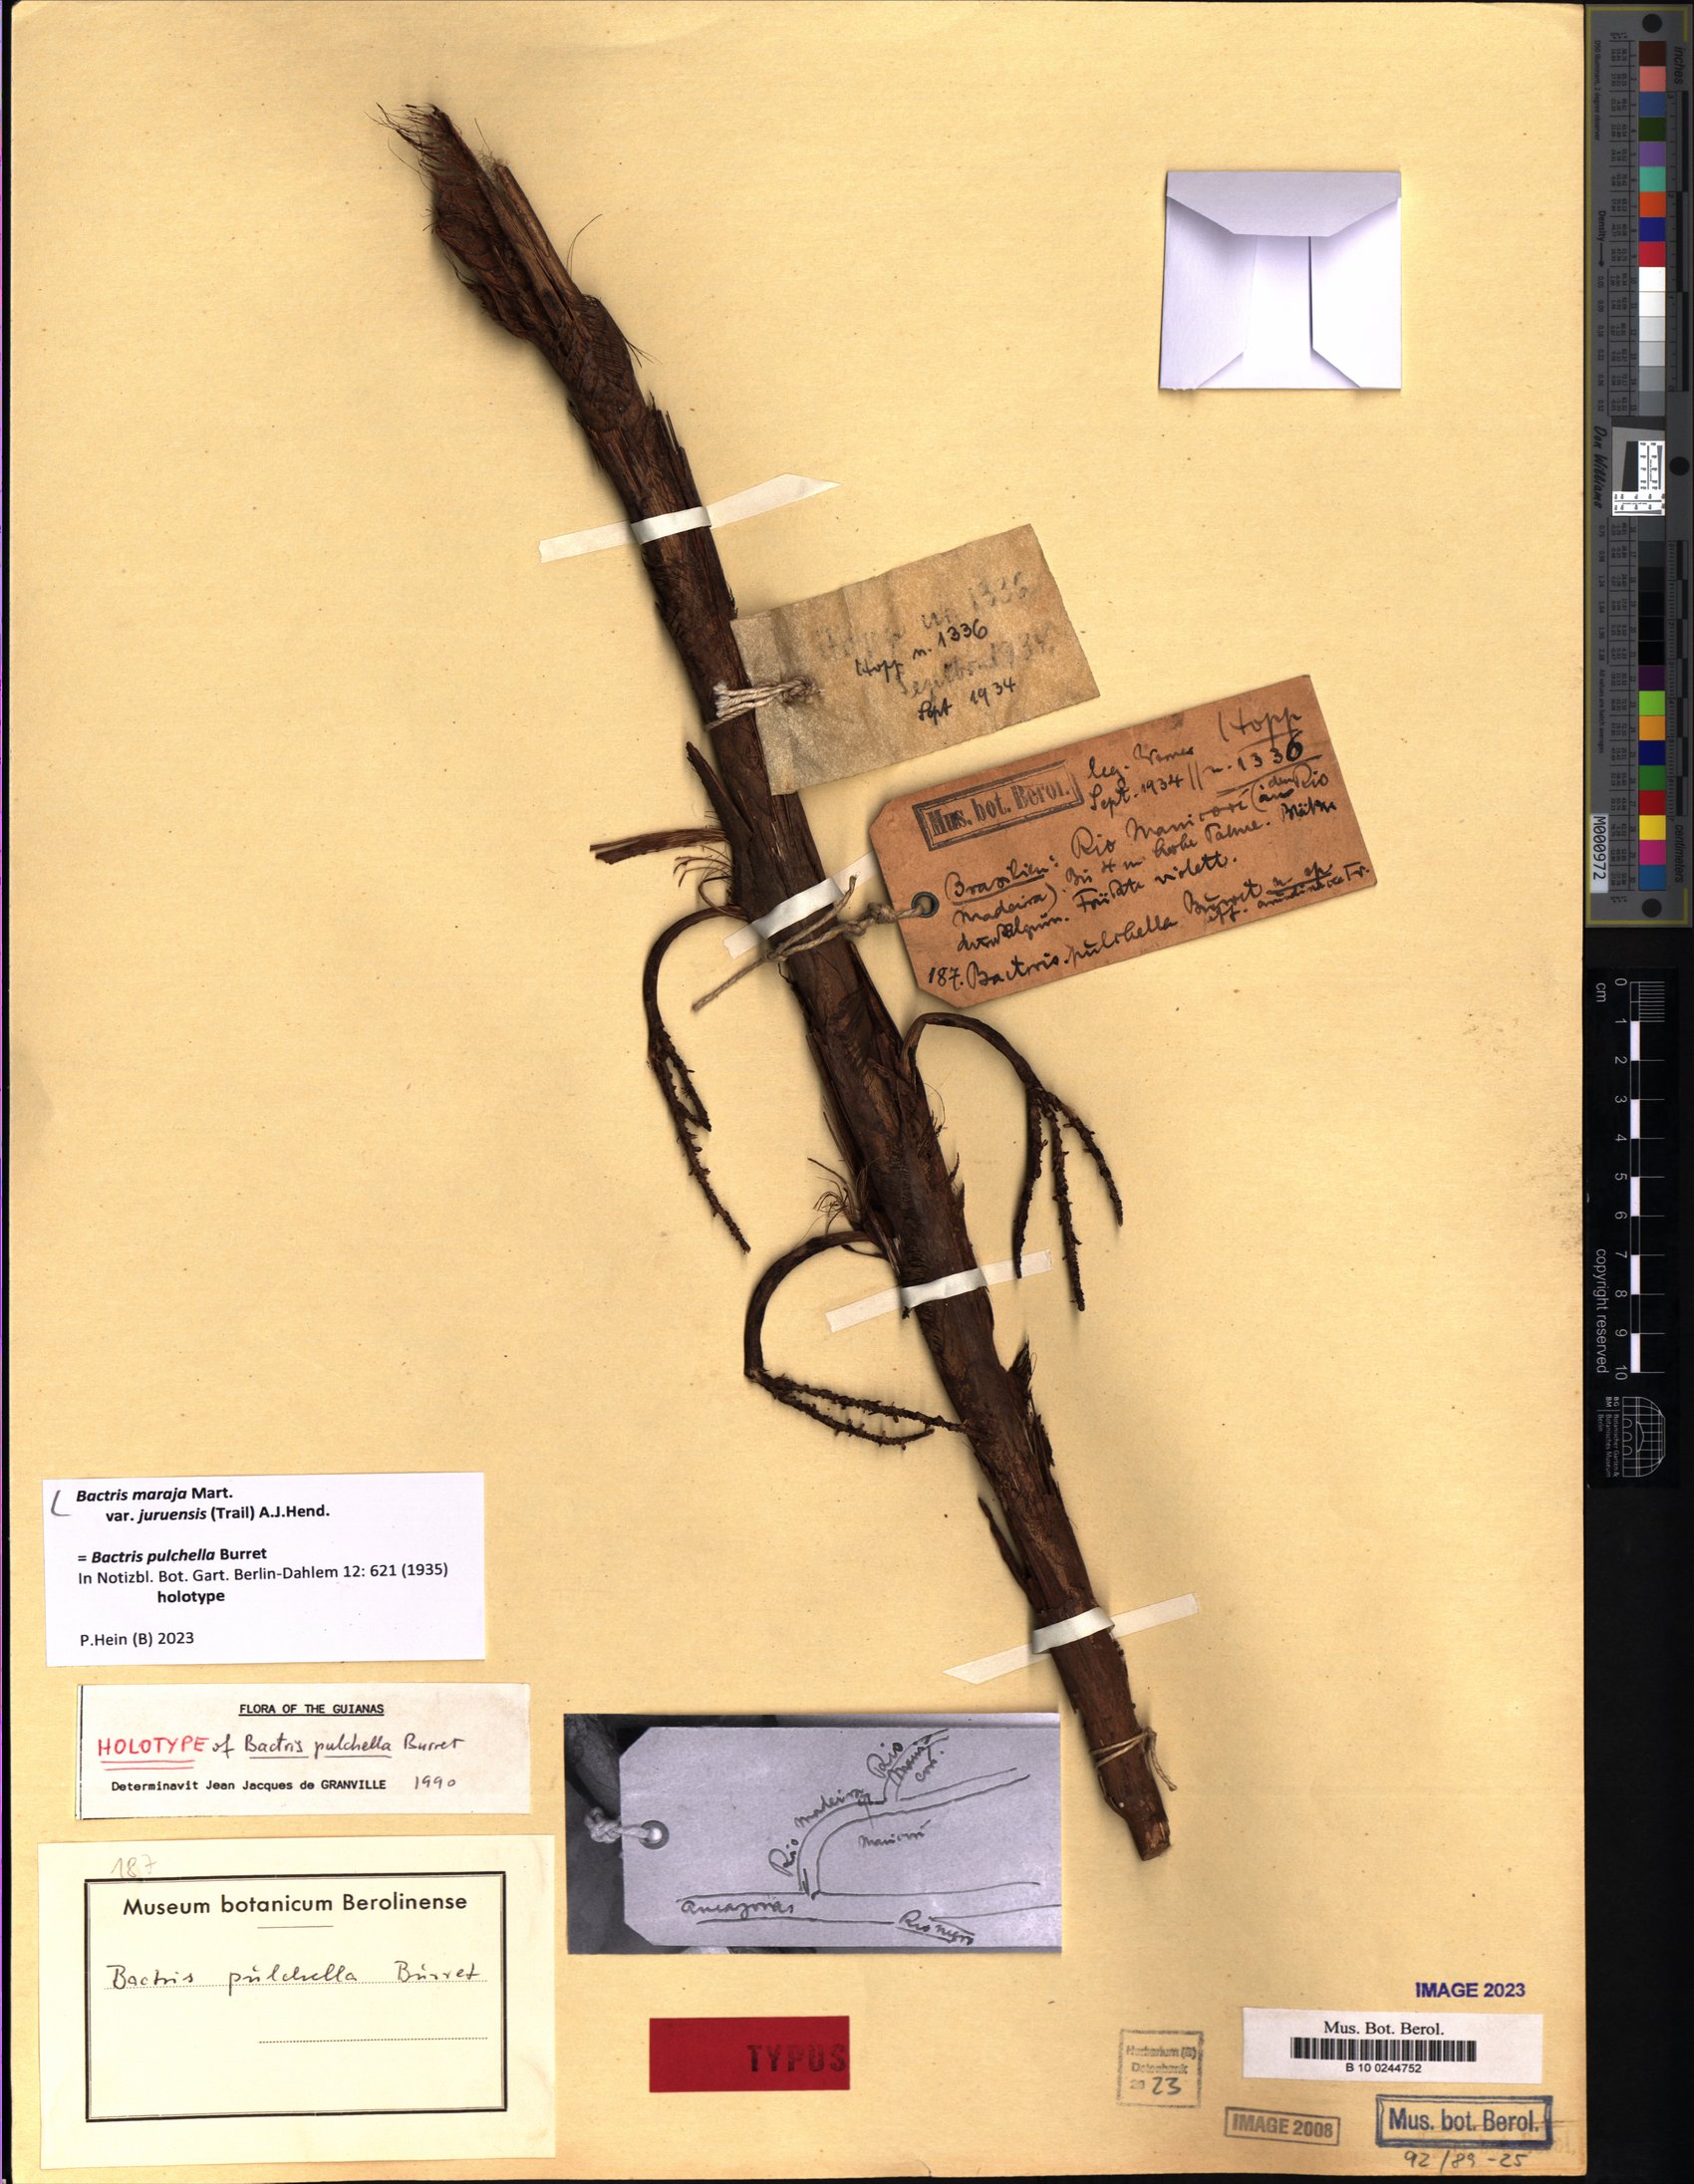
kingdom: Plantae
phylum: Tracheophyta
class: Liliopsida
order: Arecales
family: Arecaceae
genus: Bactris
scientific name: Bactris maraja
